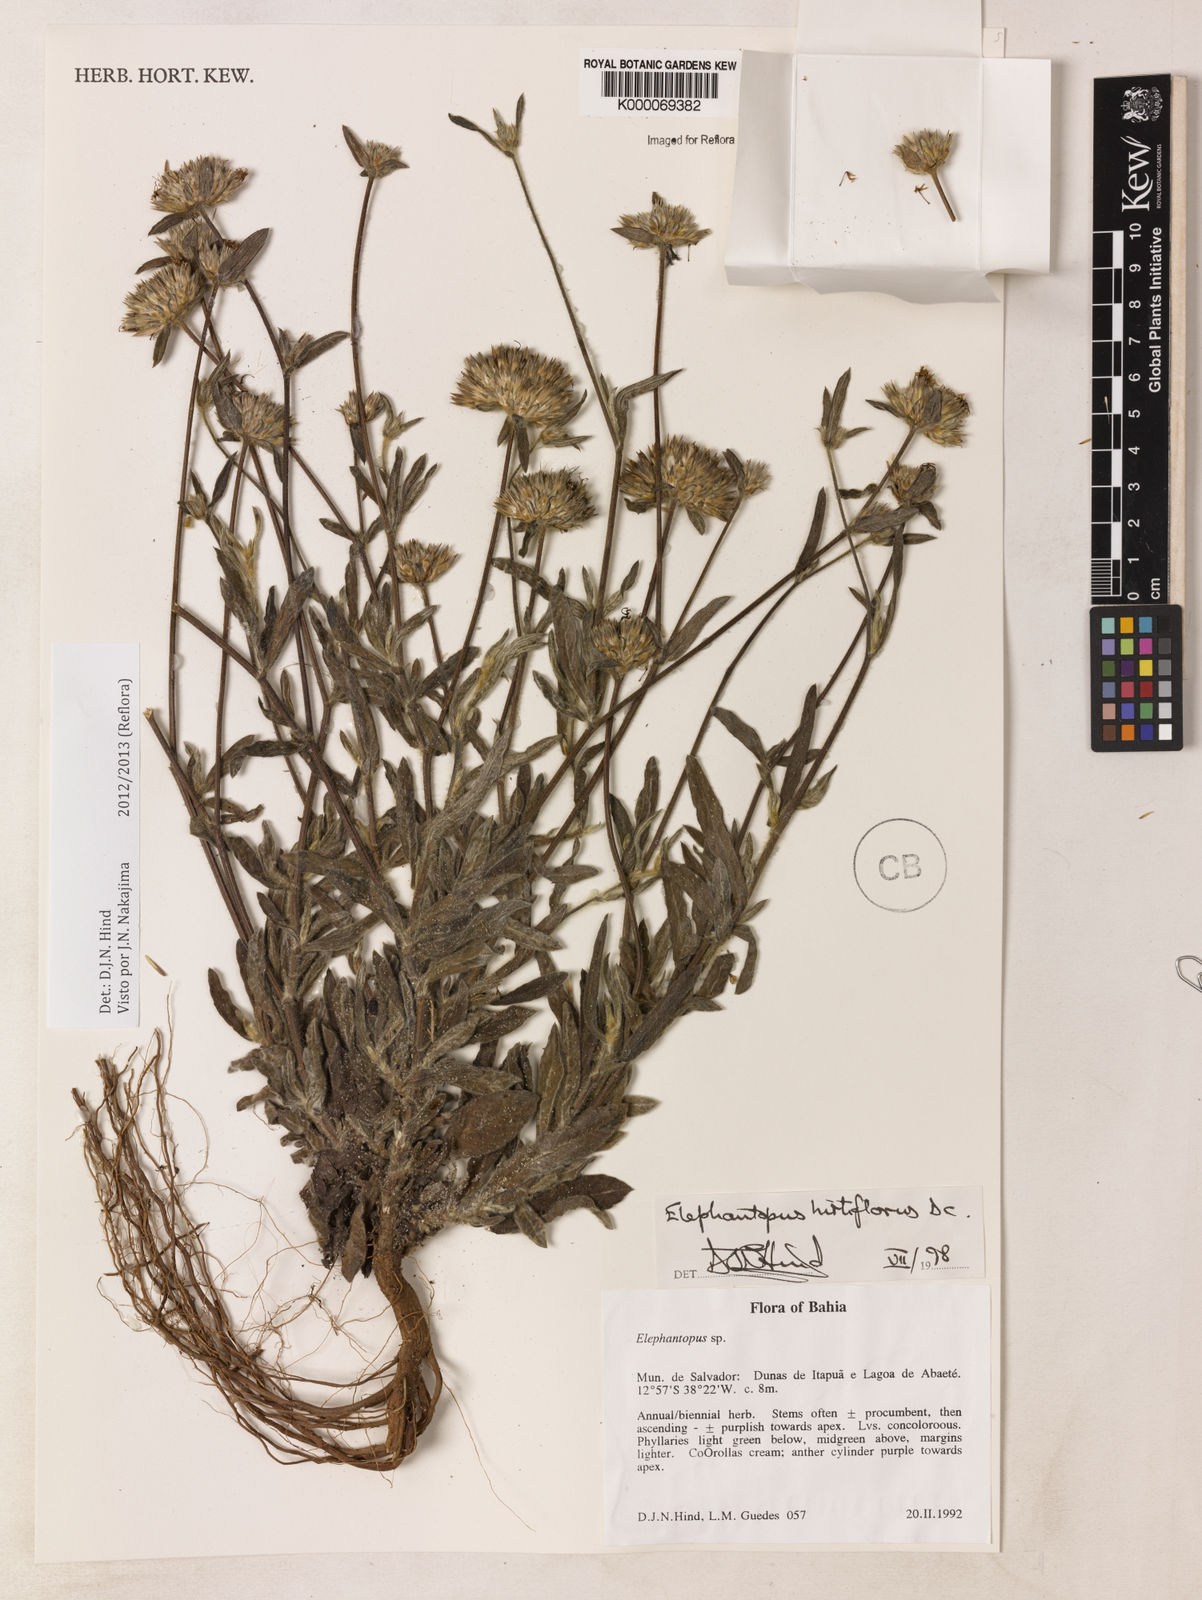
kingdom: Plantae
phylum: Tracheophyta
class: Magnoliopsida
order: Asterales
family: Asteraceae
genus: Elephantopus
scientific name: Elephantopus hirtiflorus
